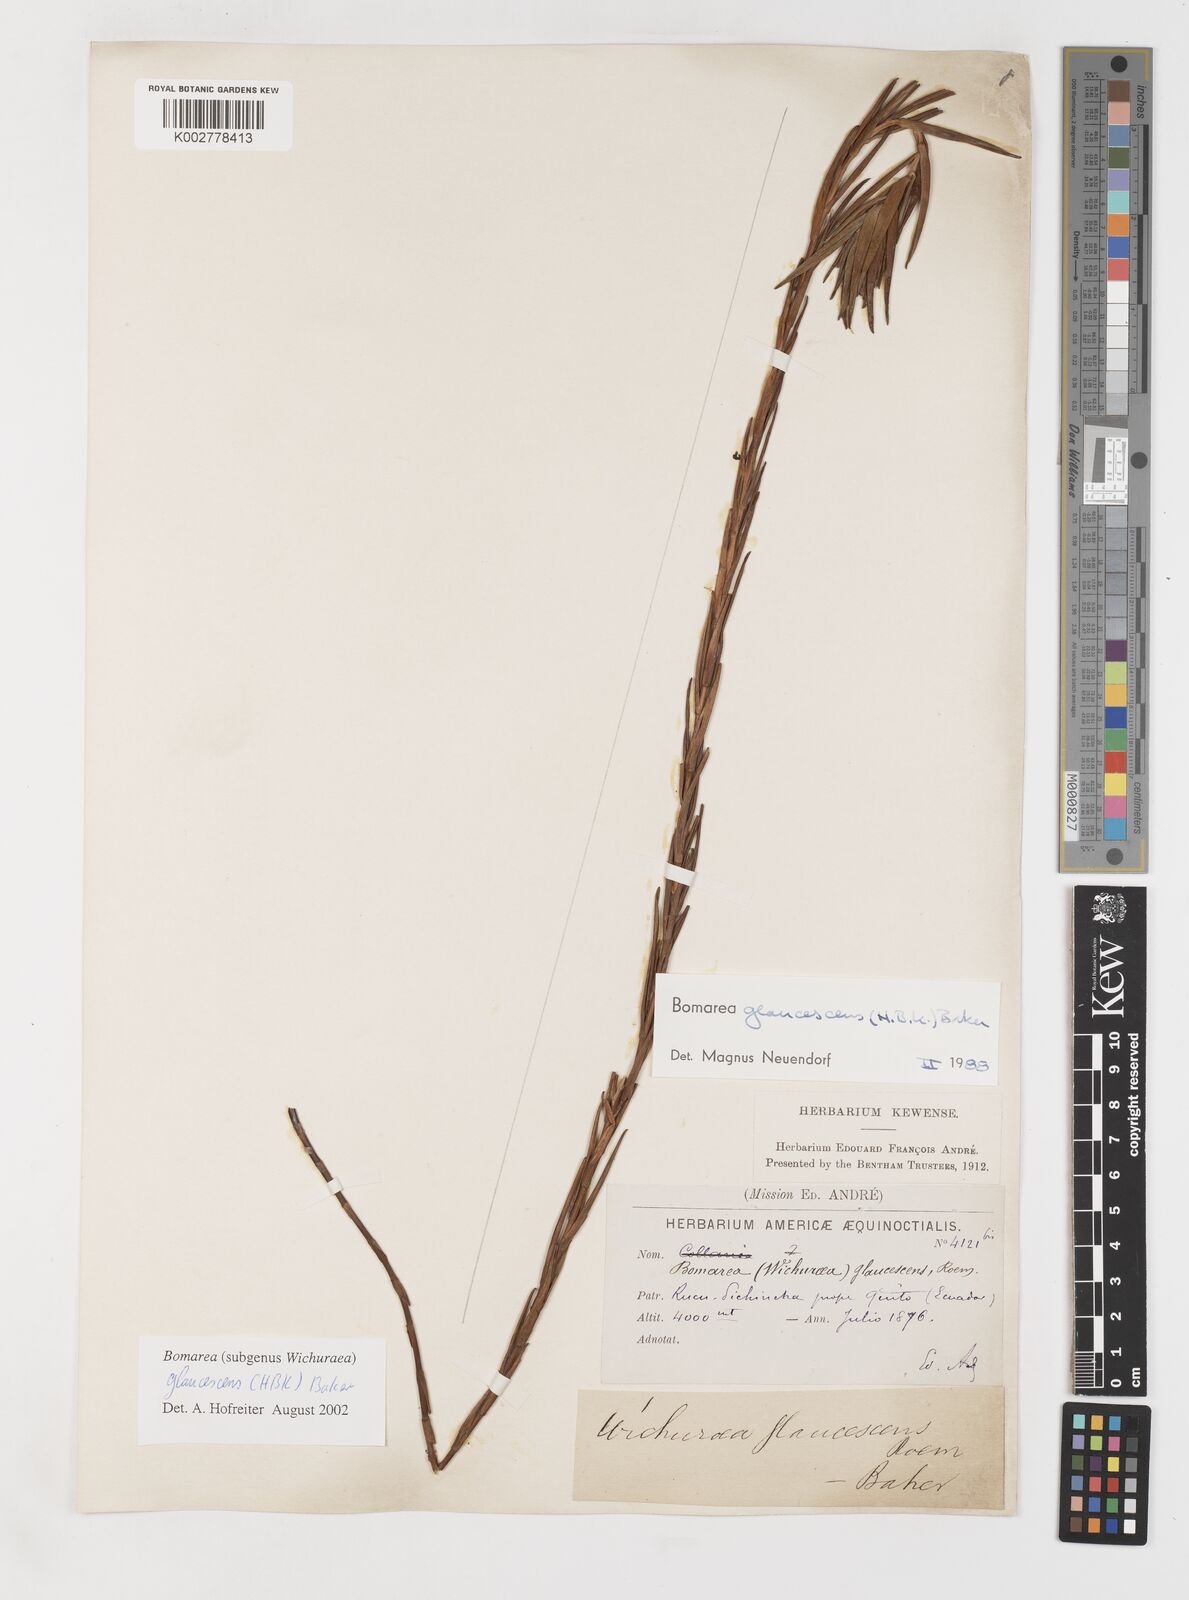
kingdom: Plantae
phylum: Tracheophyta
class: Liliopsida
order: Liliales
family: Alstroemeriaceae
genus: Bomarea
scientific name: Bomarea glaucescens
